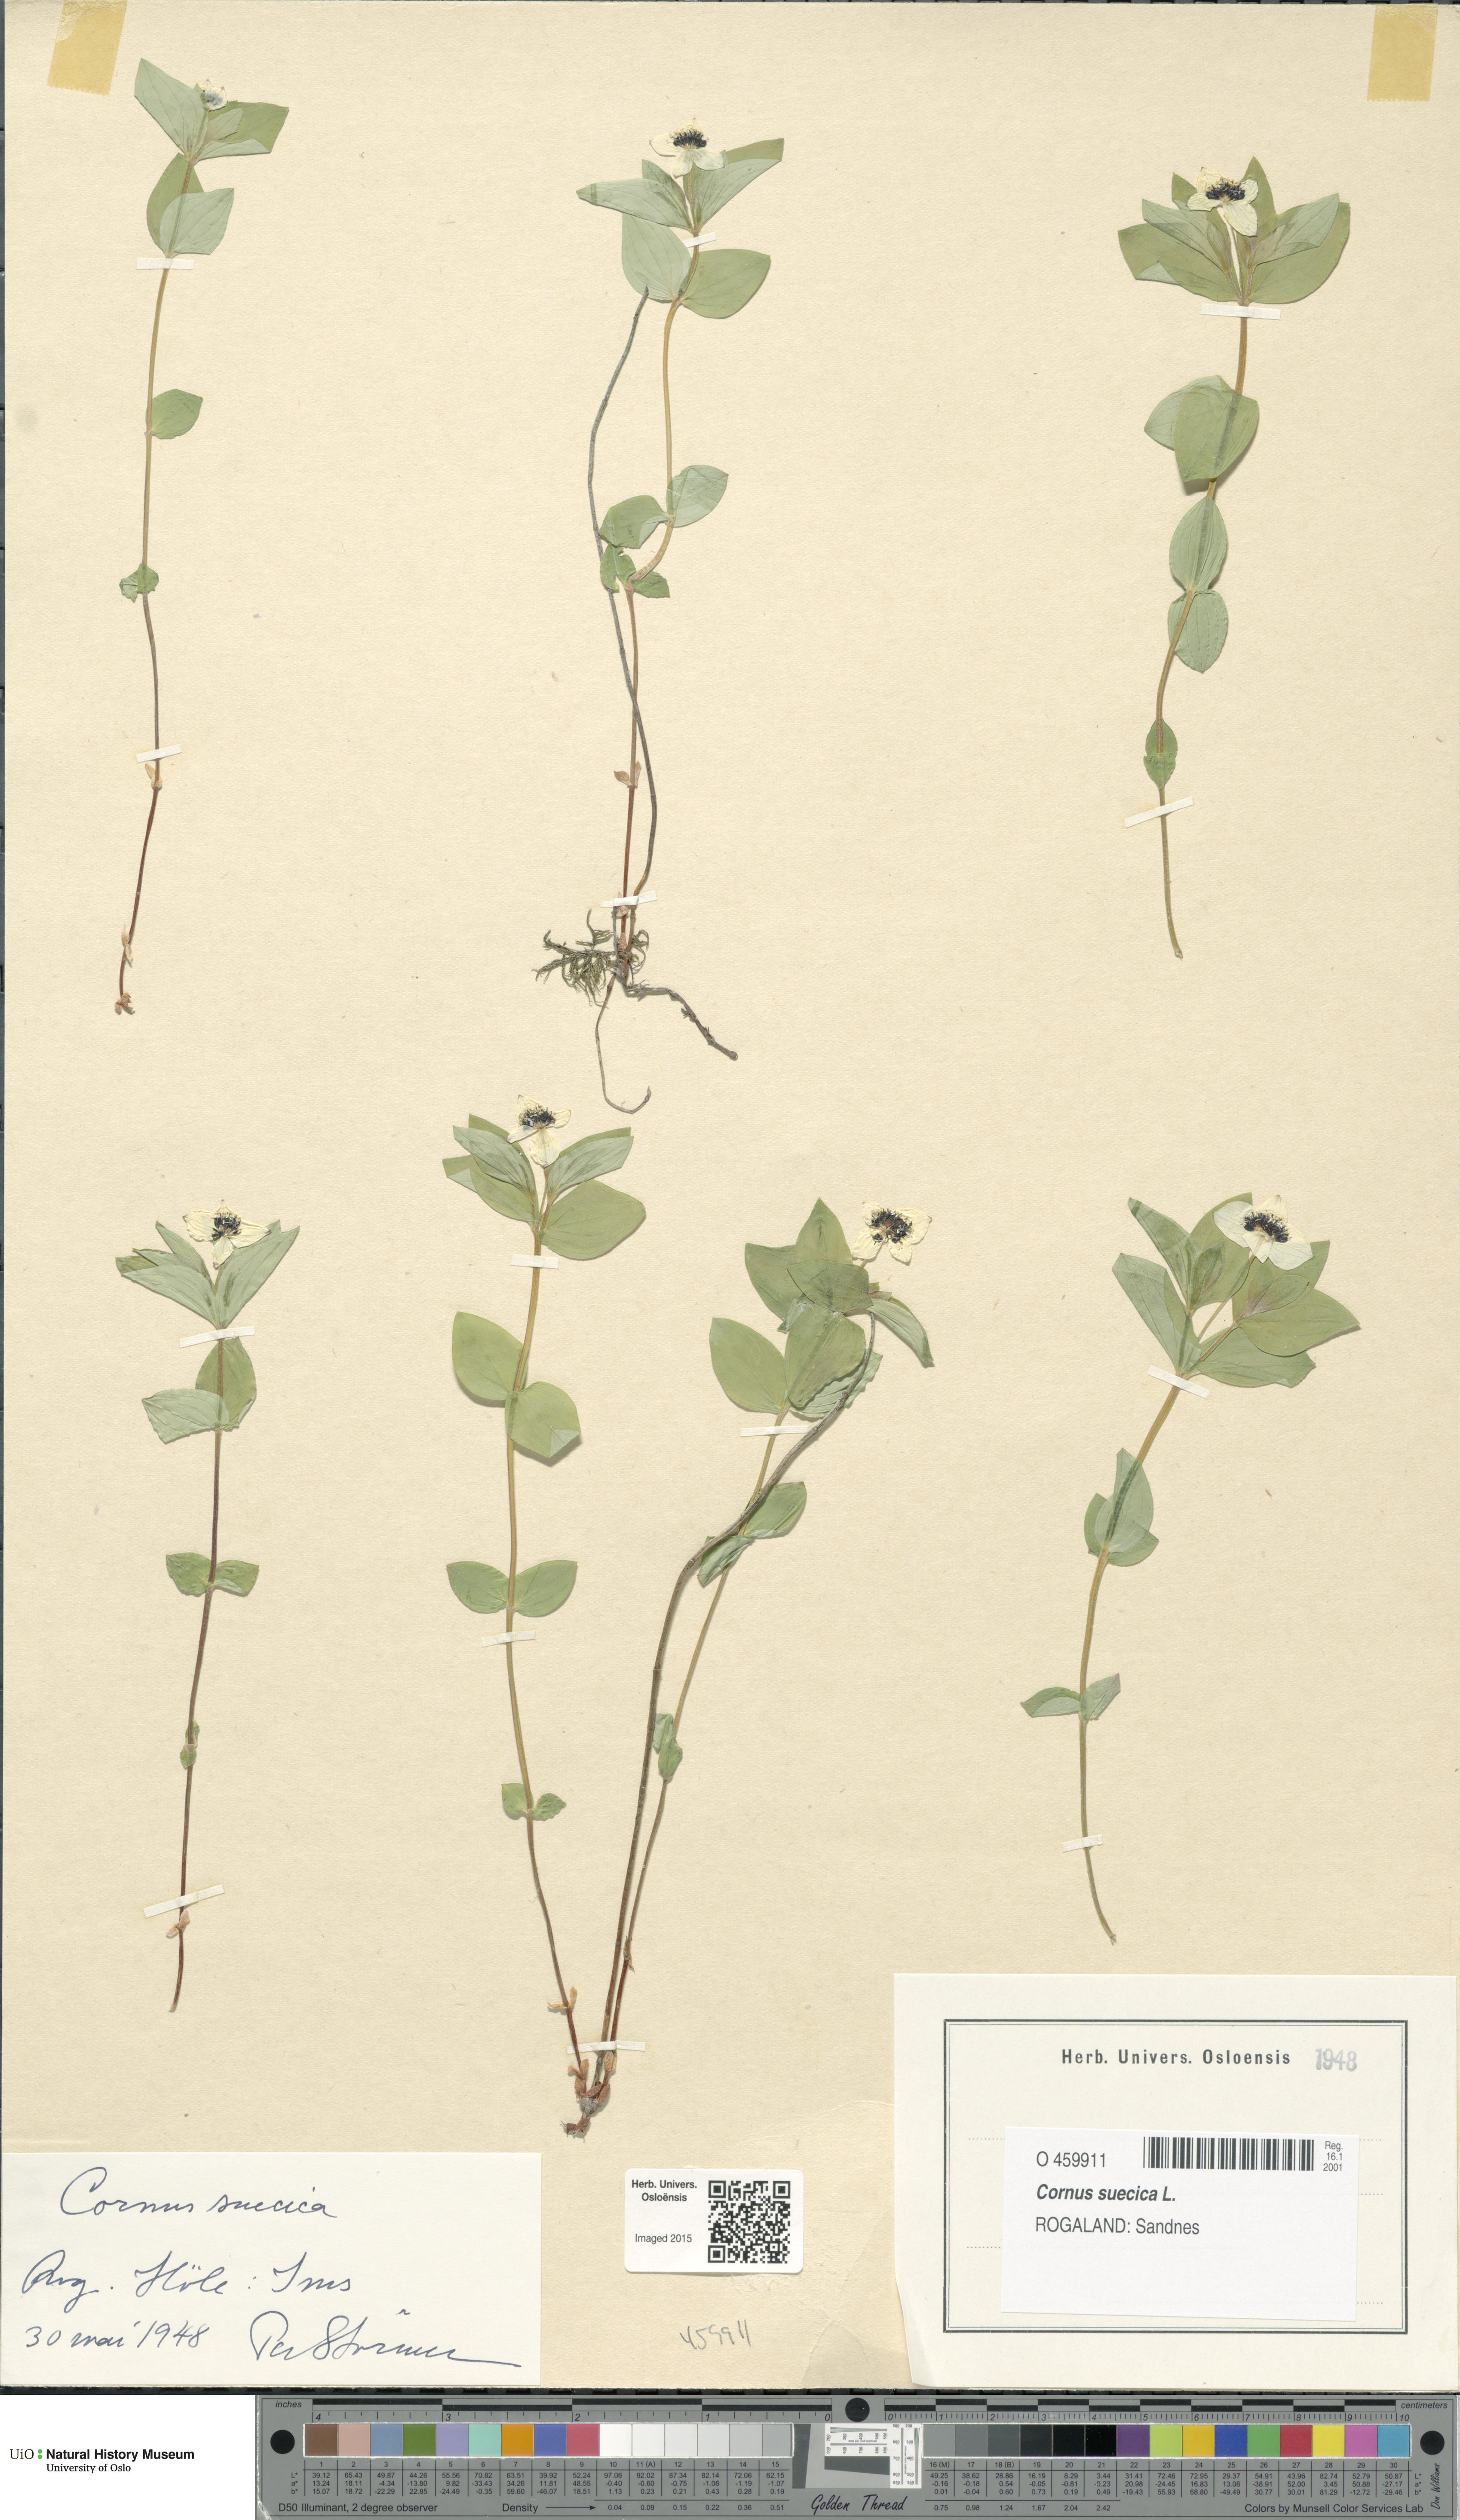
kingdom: Plantae
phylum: Tracheophyta
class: Magnoliopsida
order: Cornales
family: Cornaceae
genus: Cornus
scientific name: Cornus suecica
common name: Dwarf cornel
